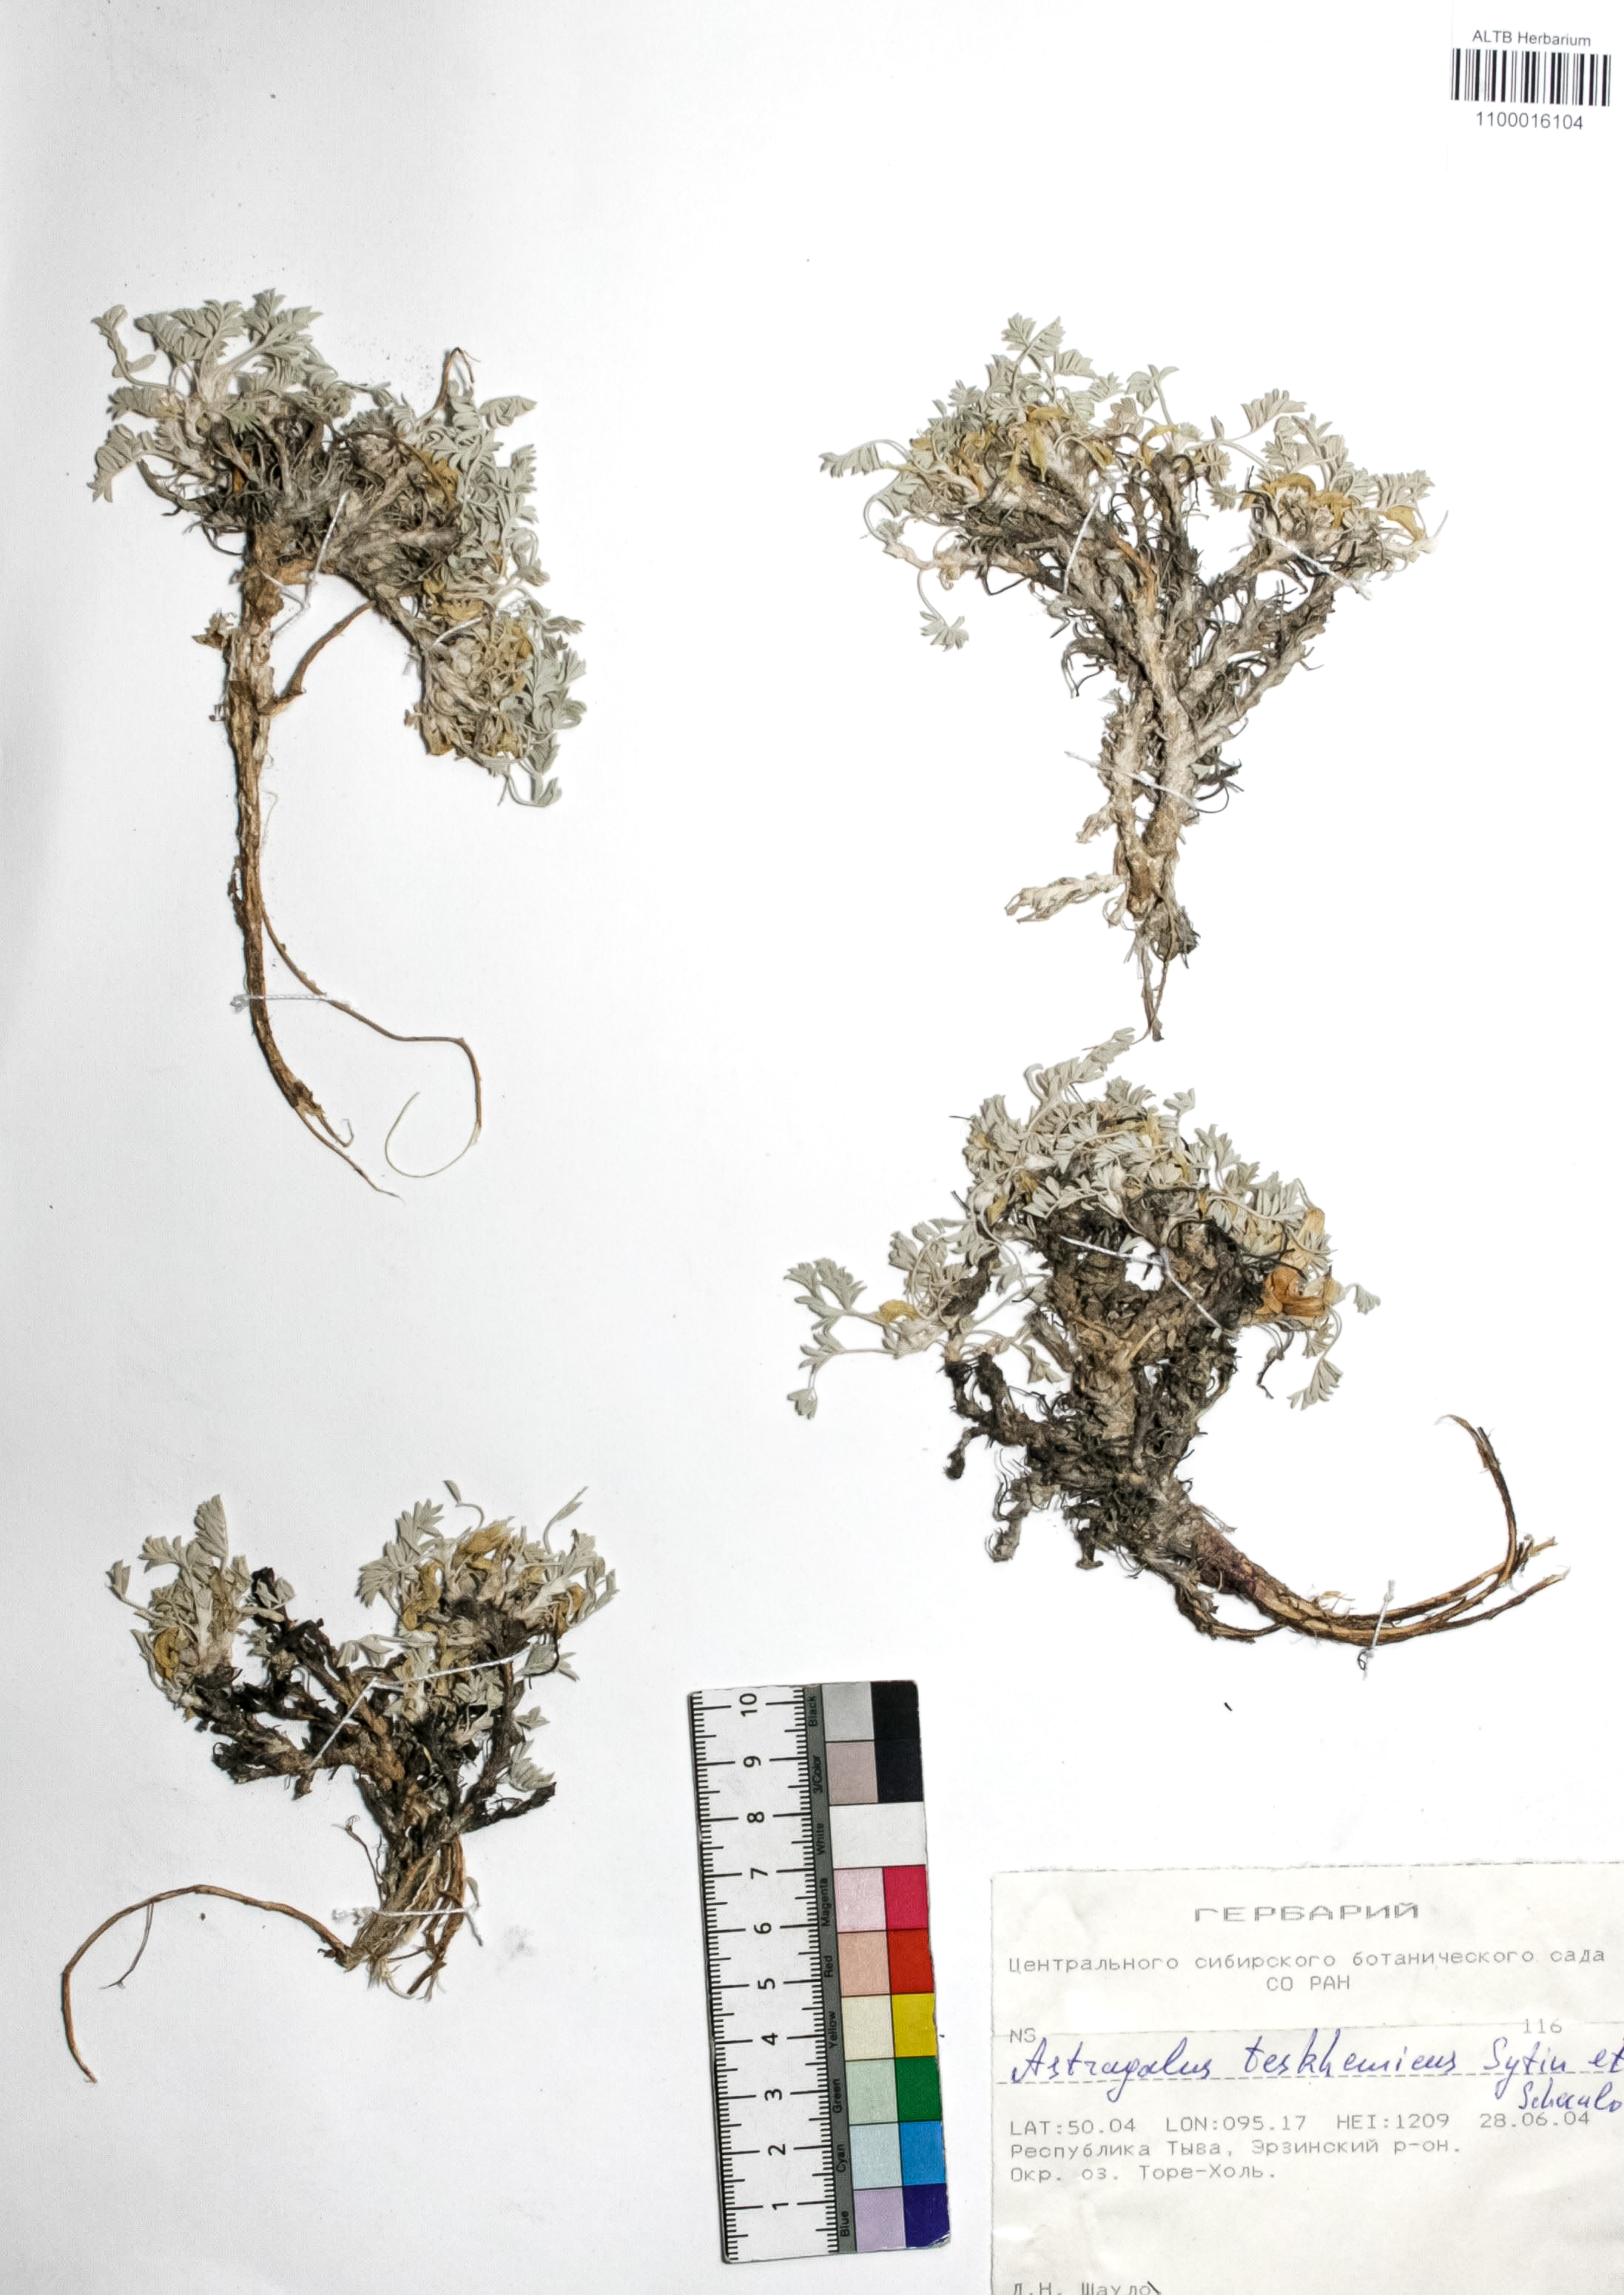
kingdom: Plantae
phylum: Tracheophyta
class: Magnoliopsida
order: Fabales
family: Fabaceae
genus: Astragalus
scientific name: Astragalus testiculatus
